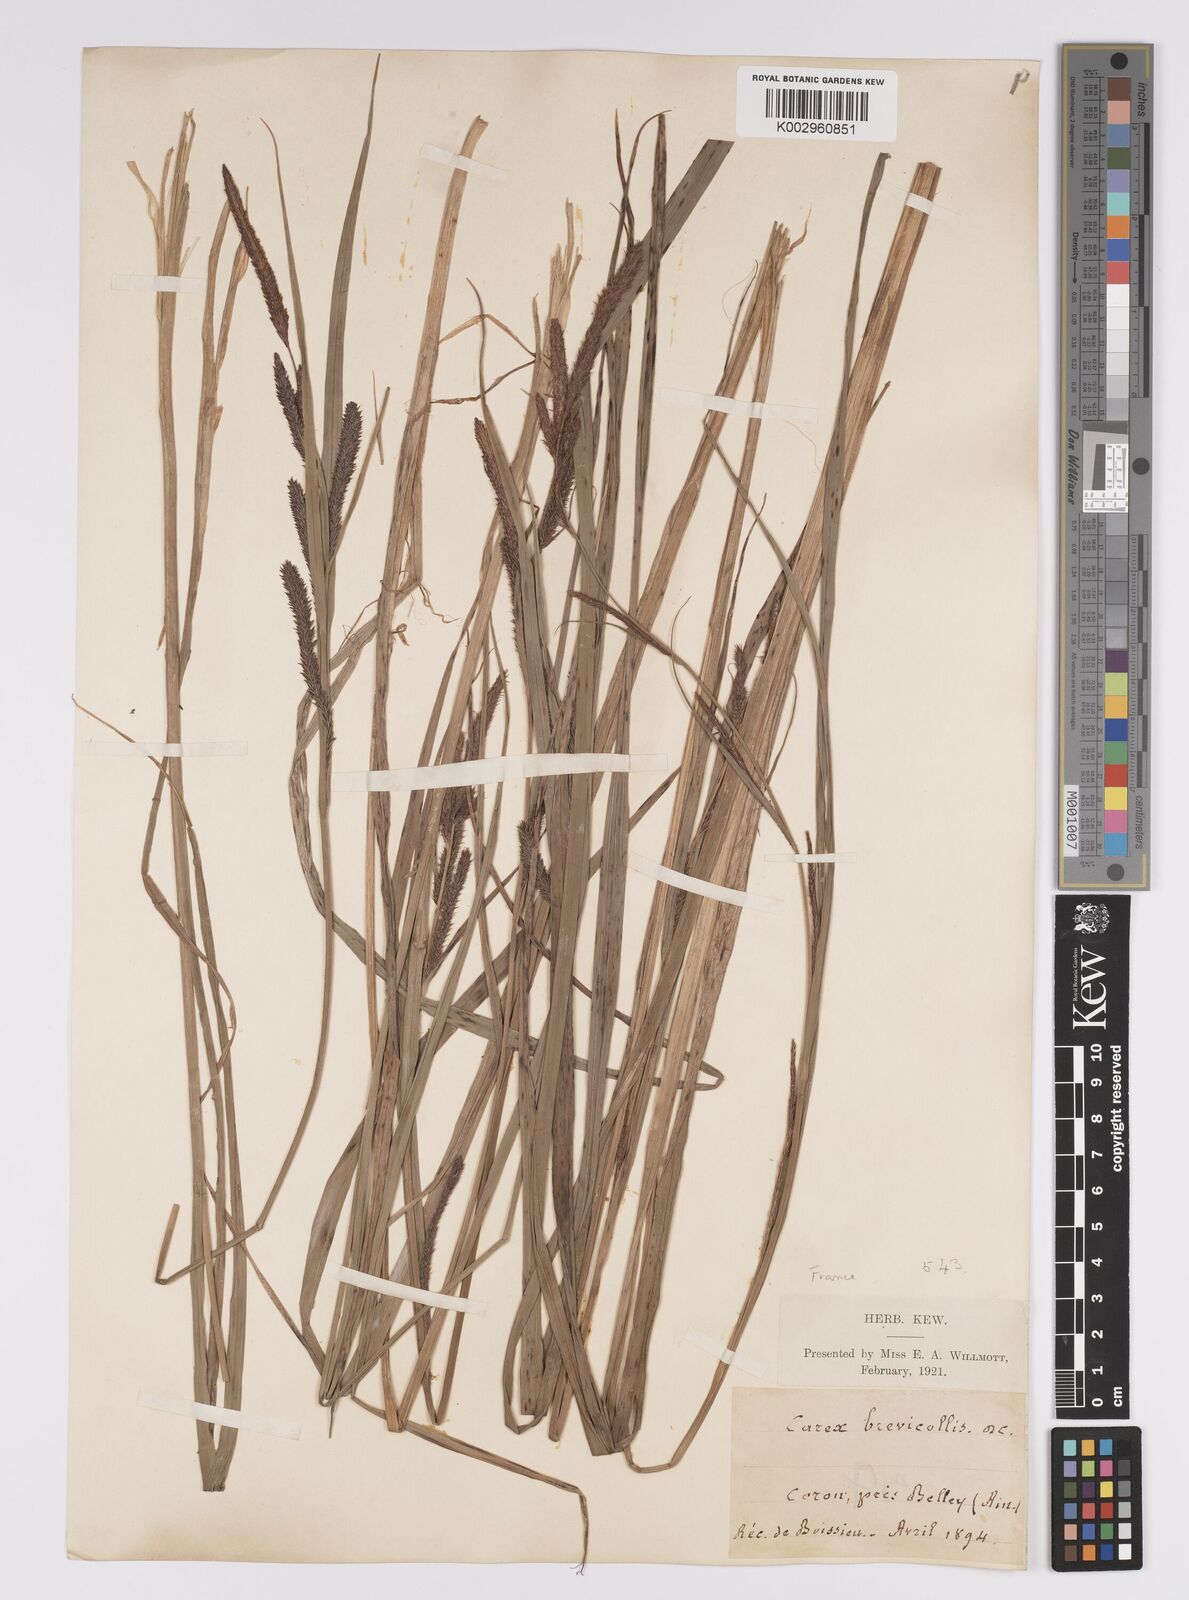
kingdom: Plantae
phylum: Tracheophyta
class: Liliopsida
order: Poales
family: Cyperaceae
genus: Carex
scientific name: Carex acutiformis
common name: Lesser pond-sedge
